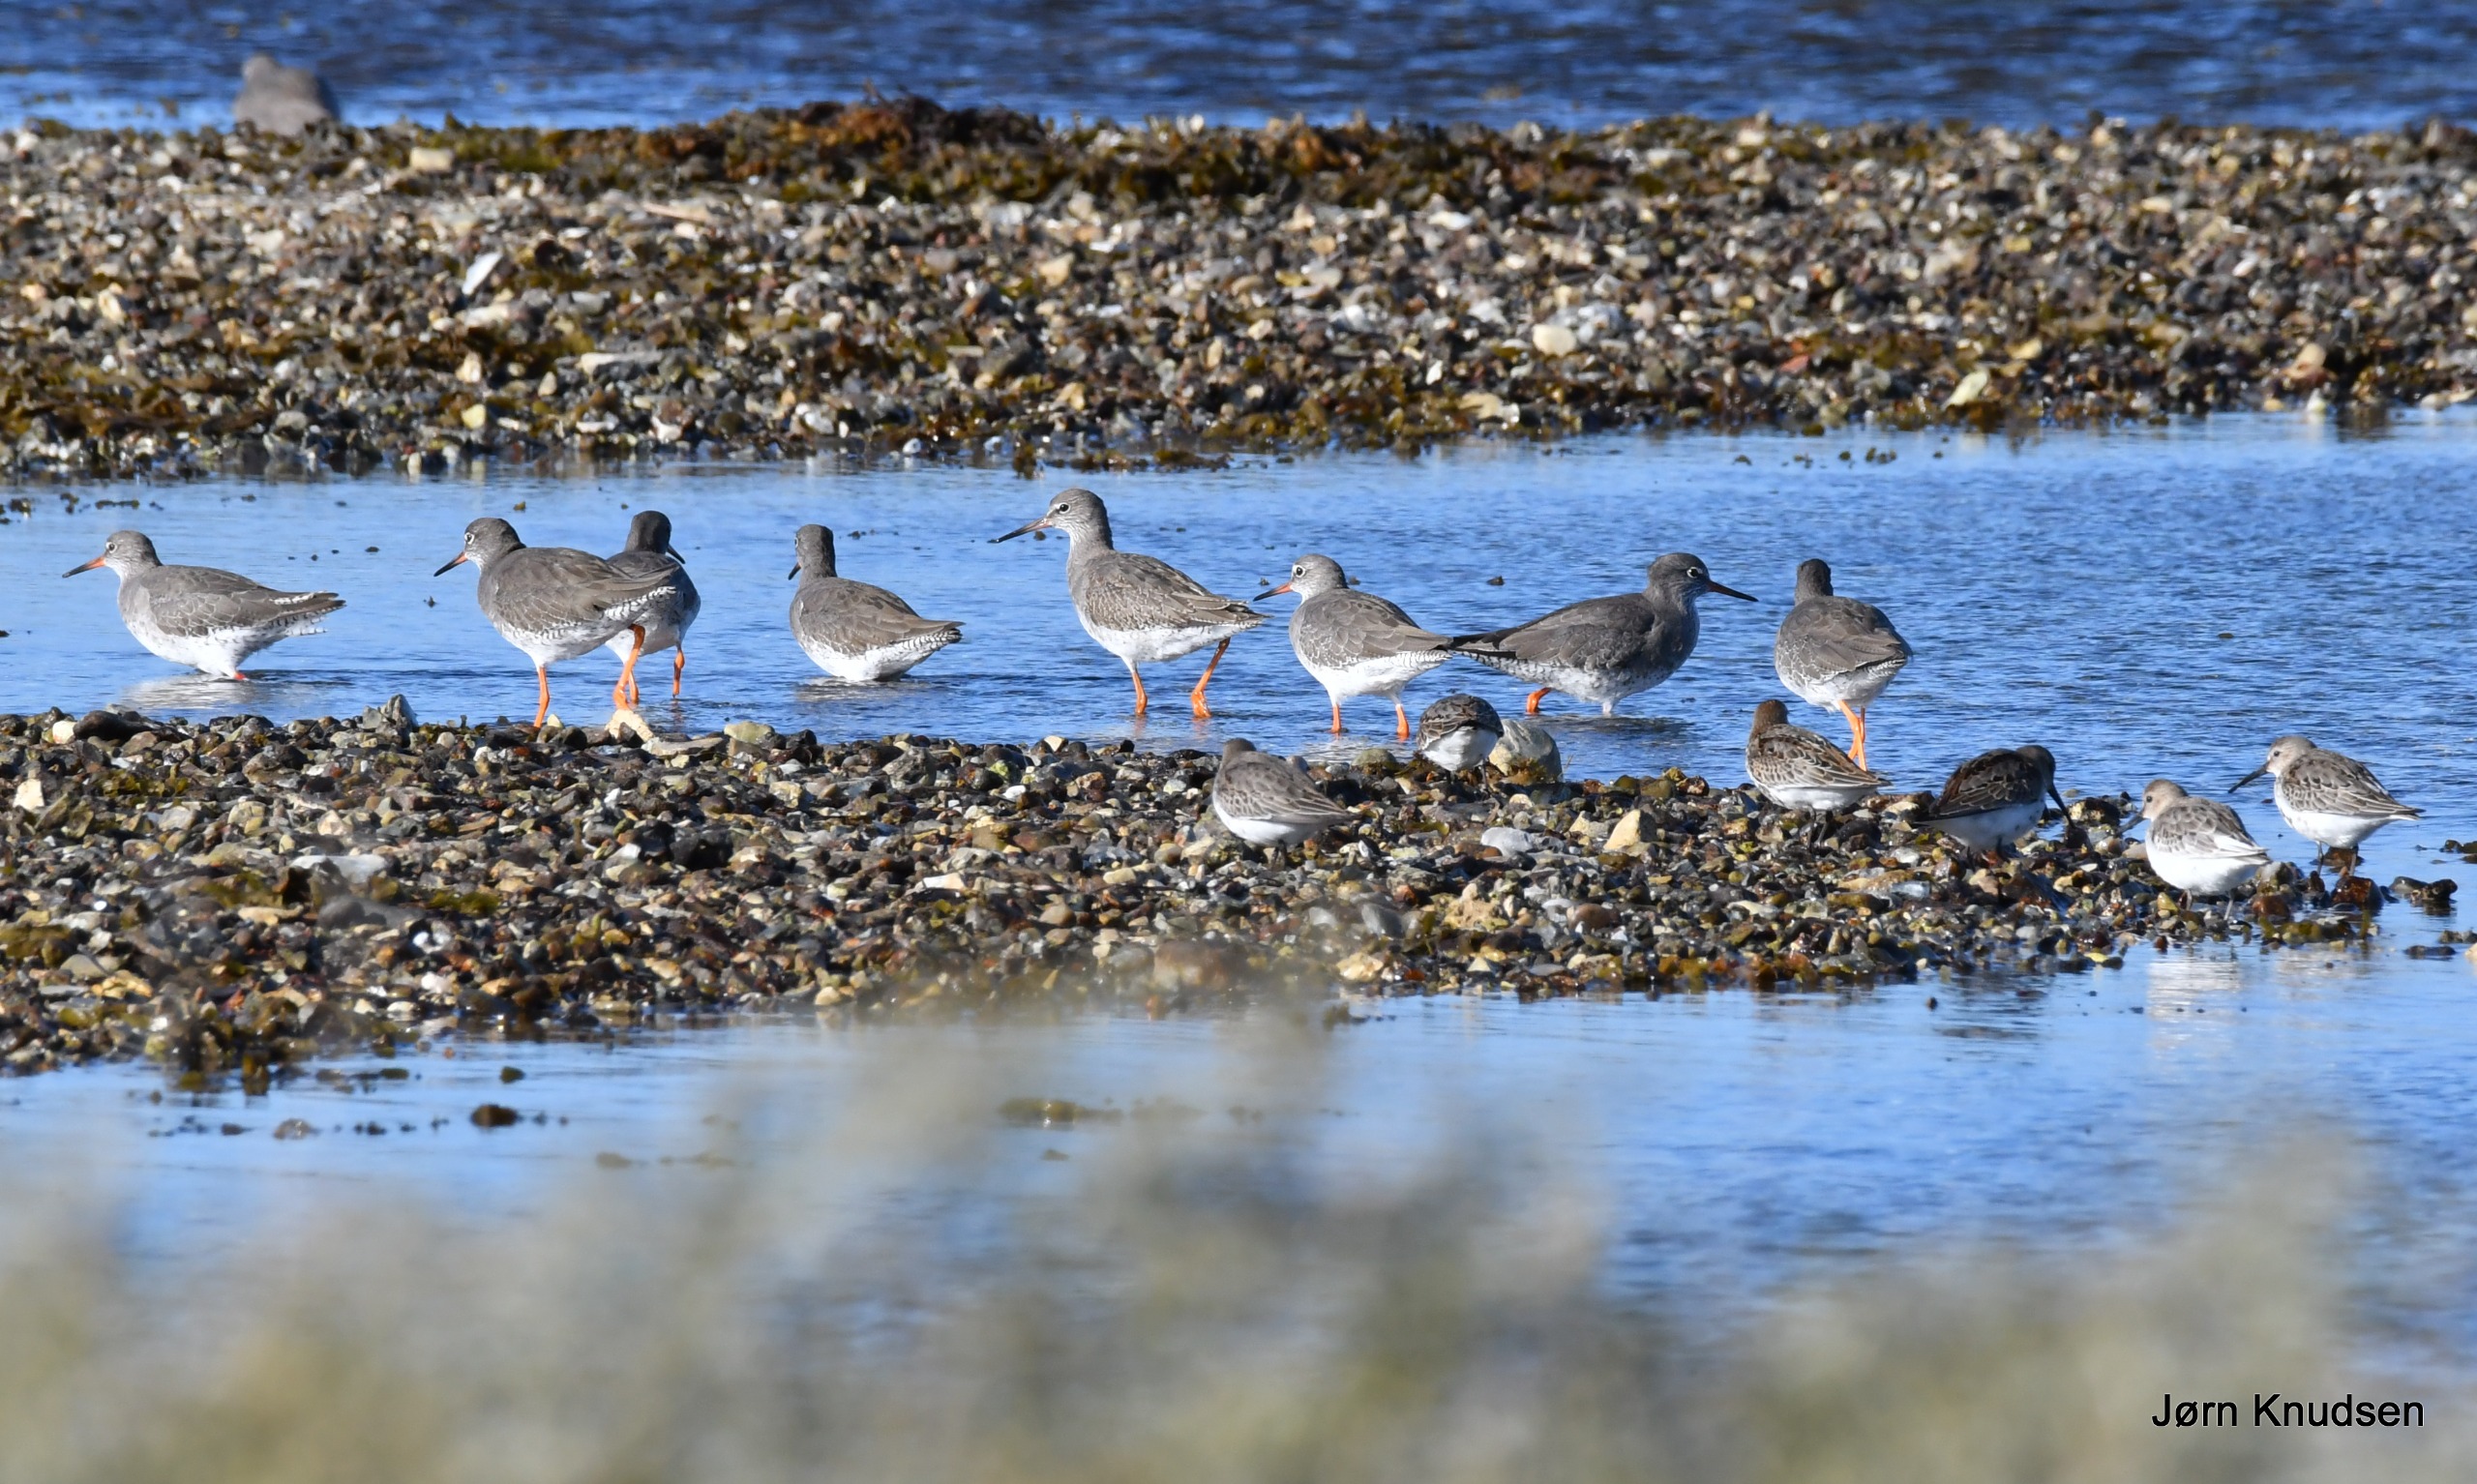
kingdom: Animalia
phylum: Chordata
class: Aves
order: Charadriiformes
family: Scolopacidae
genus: Tringa
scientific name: Tringa totanus
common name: Rødben
